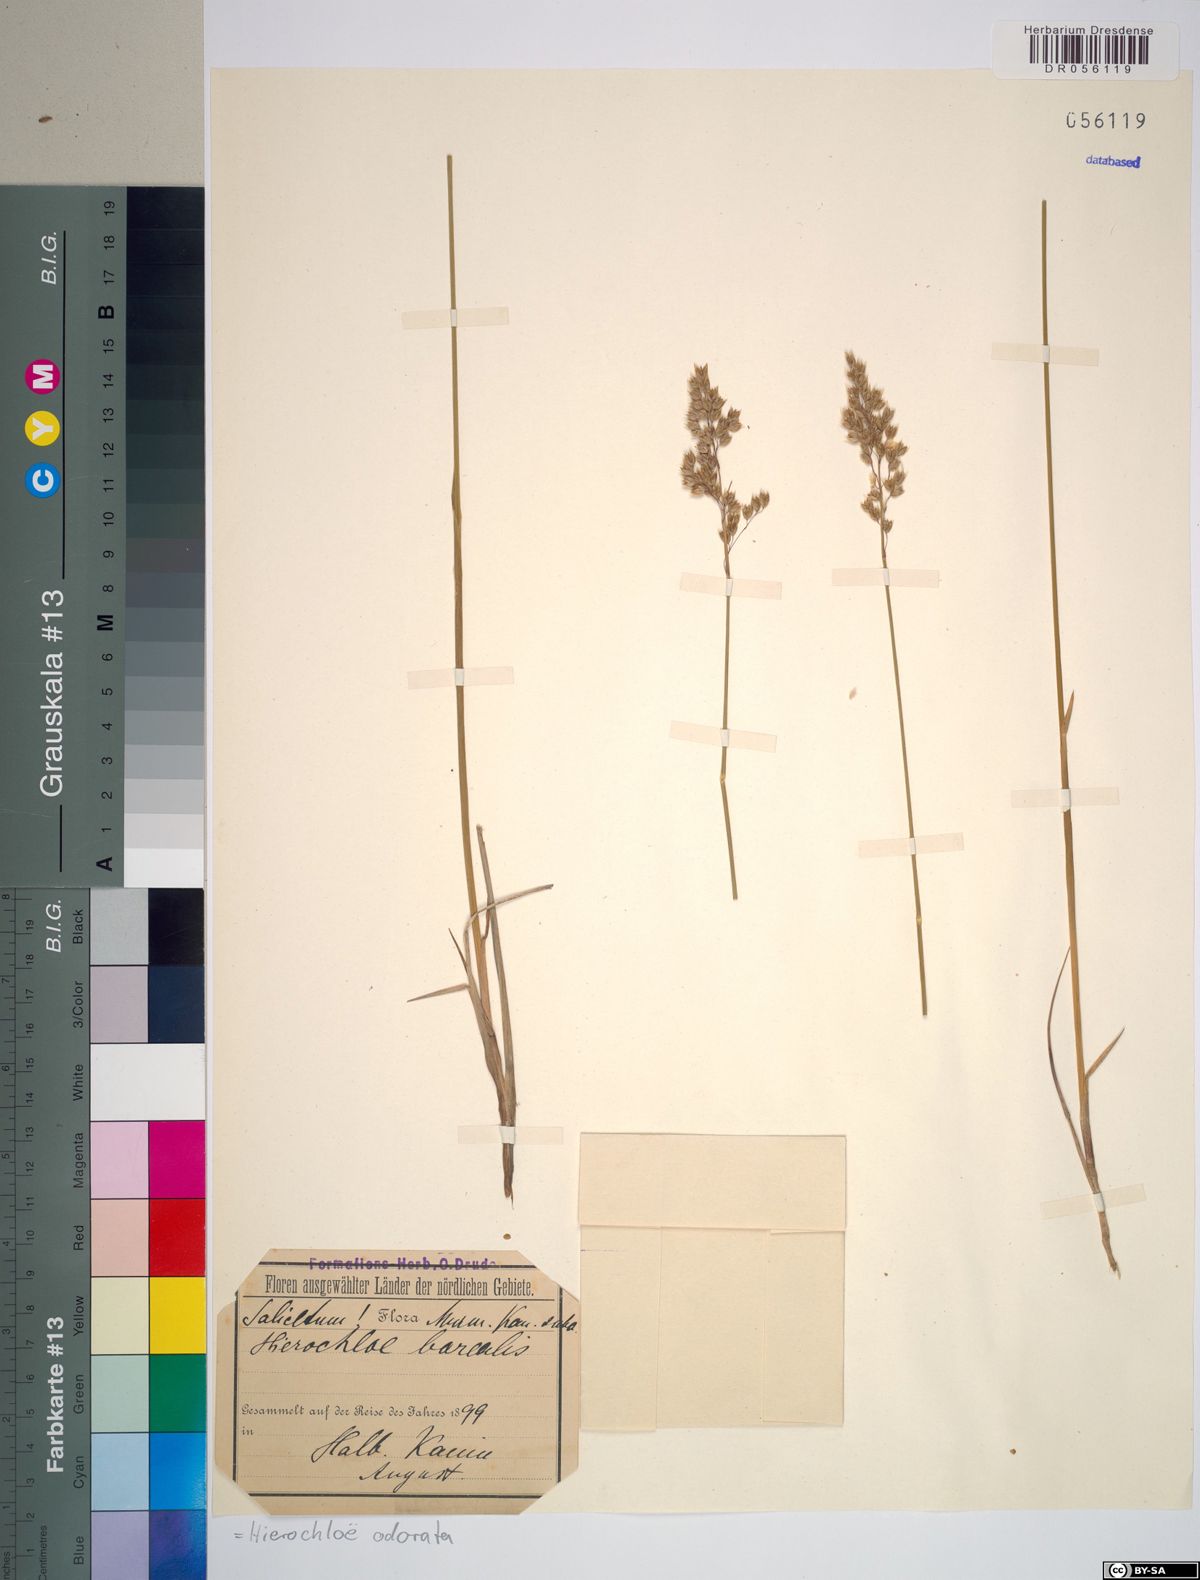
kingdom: Plantae
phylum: Tracheophyta
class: Liliopsida
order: Poales
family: Poaceae
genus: Anthoxanthum
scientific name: Anthoxanthum nitens
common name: Holy grass
